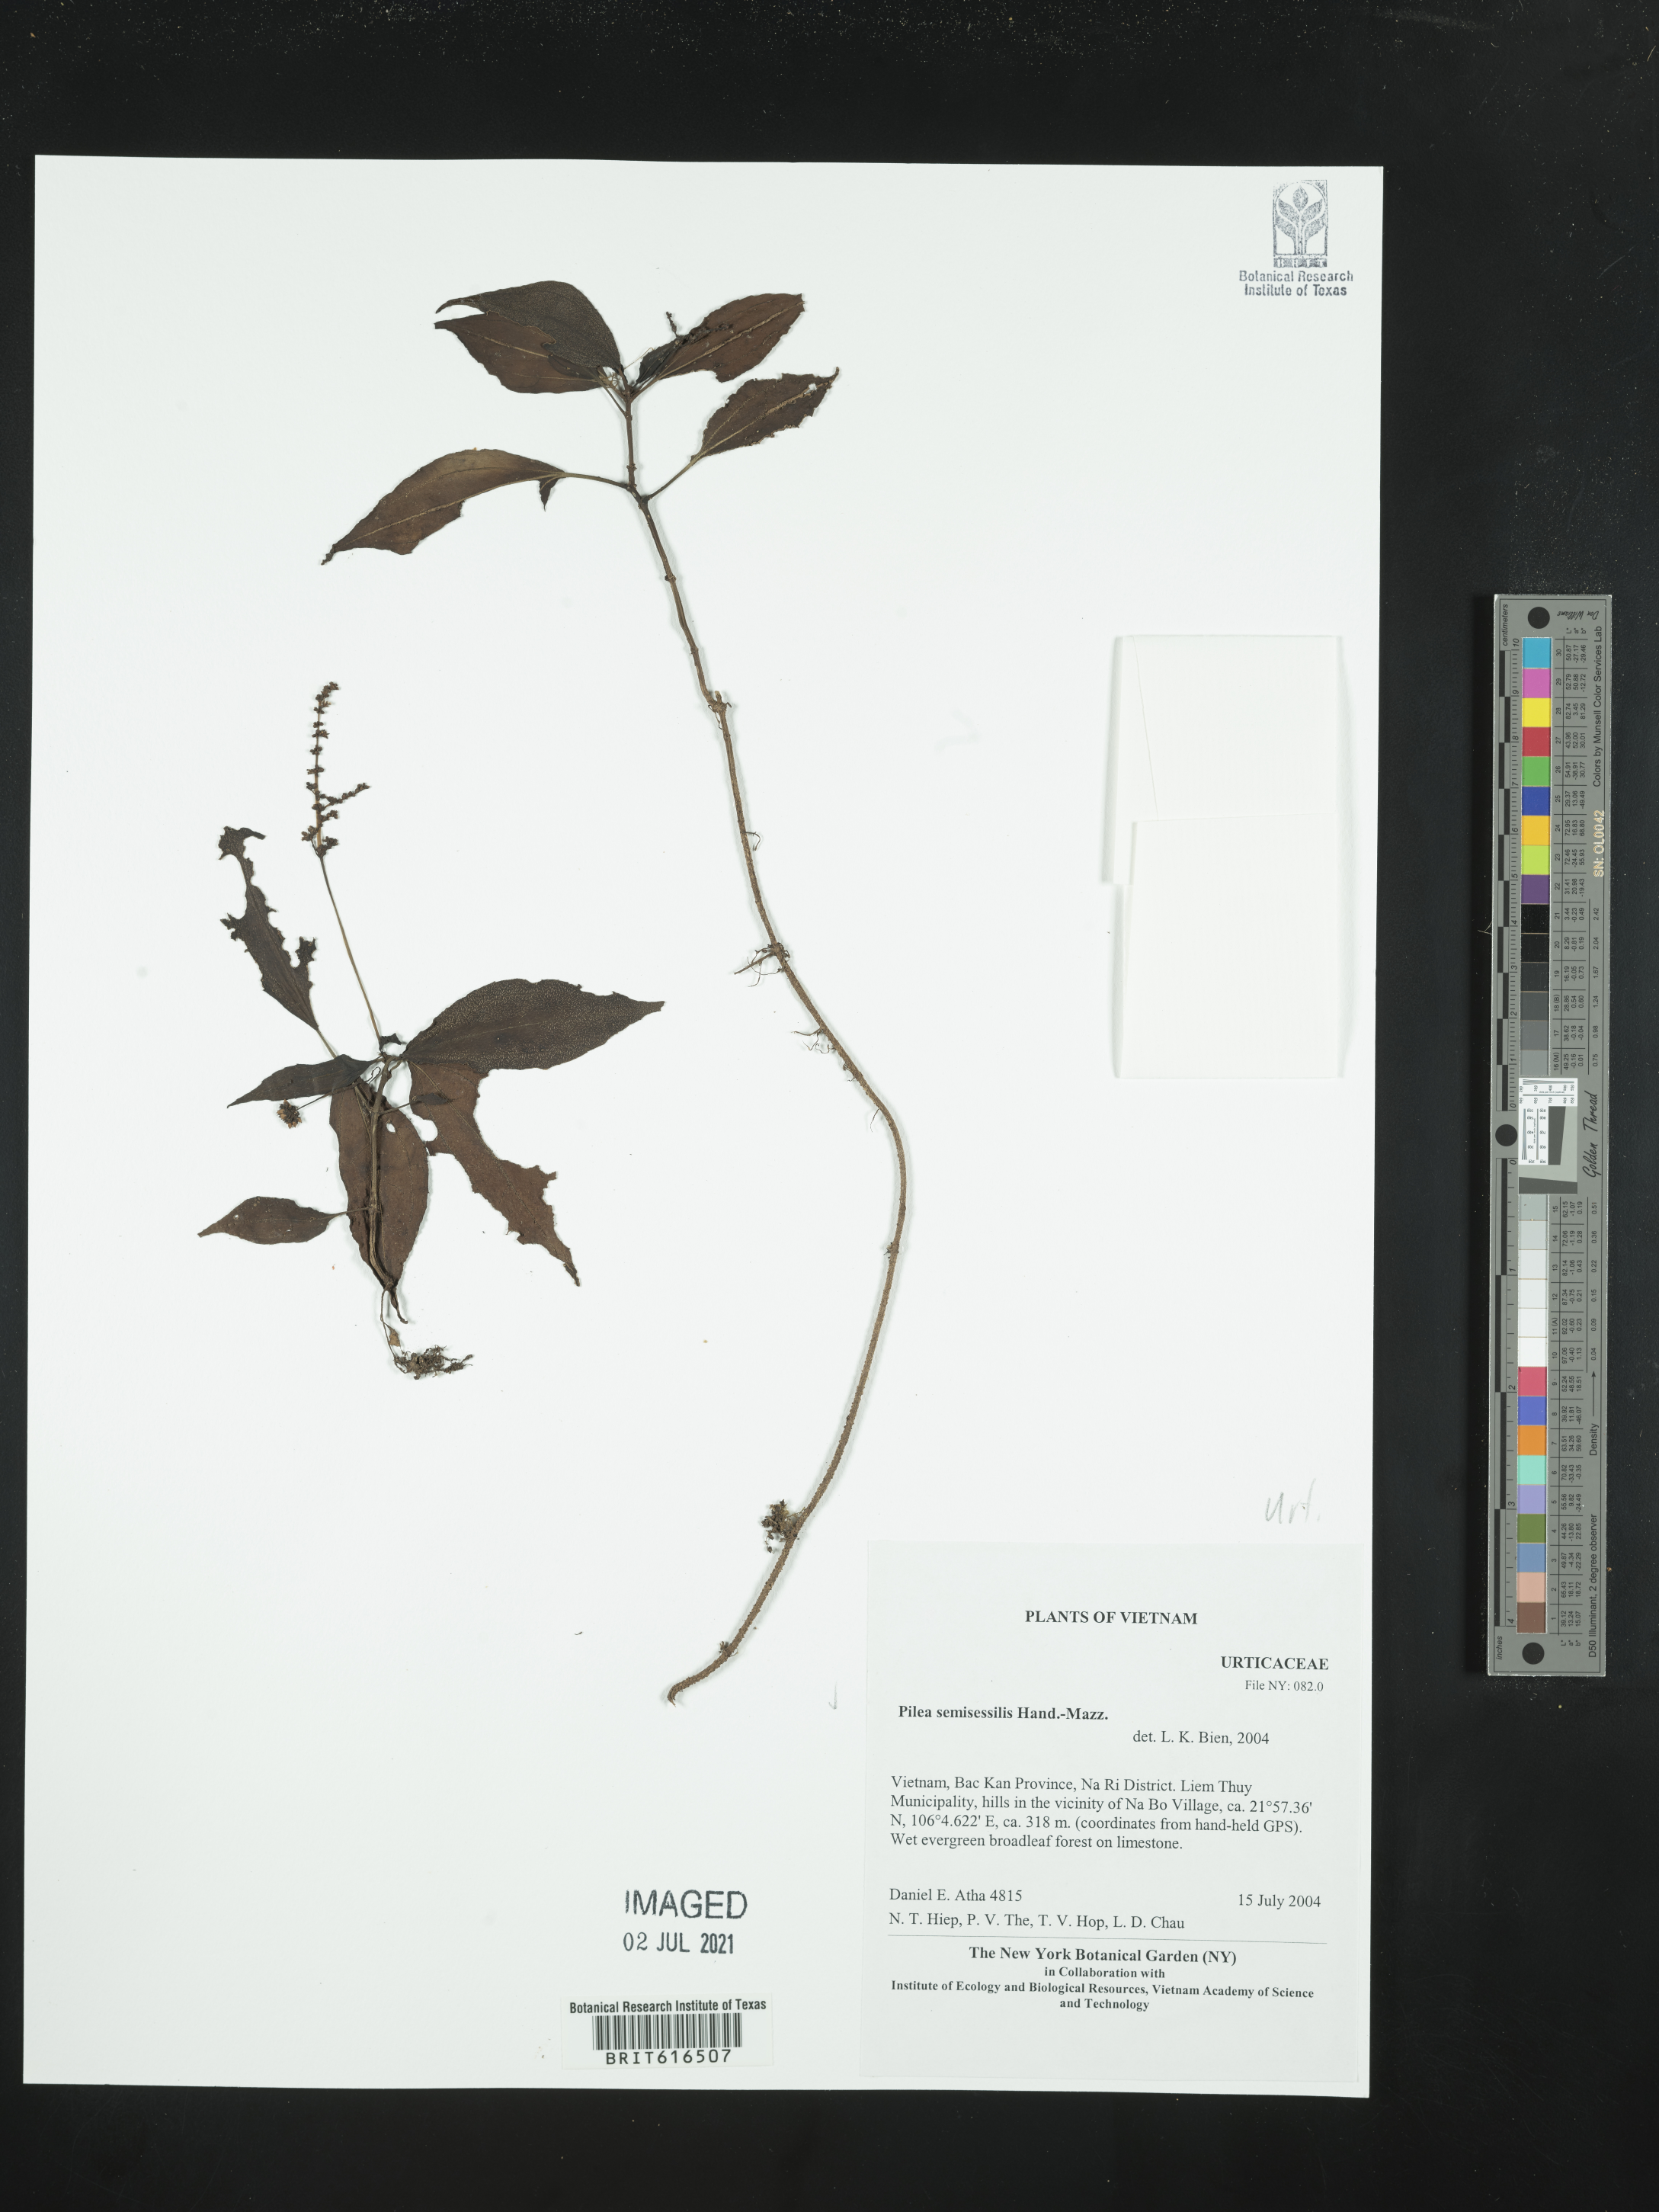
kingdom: Plantae
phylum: Tracheophyta
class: Magnoliopsida
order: Rosales
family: Urticaceae
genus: Pilea
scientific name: Pilea semisessilis
